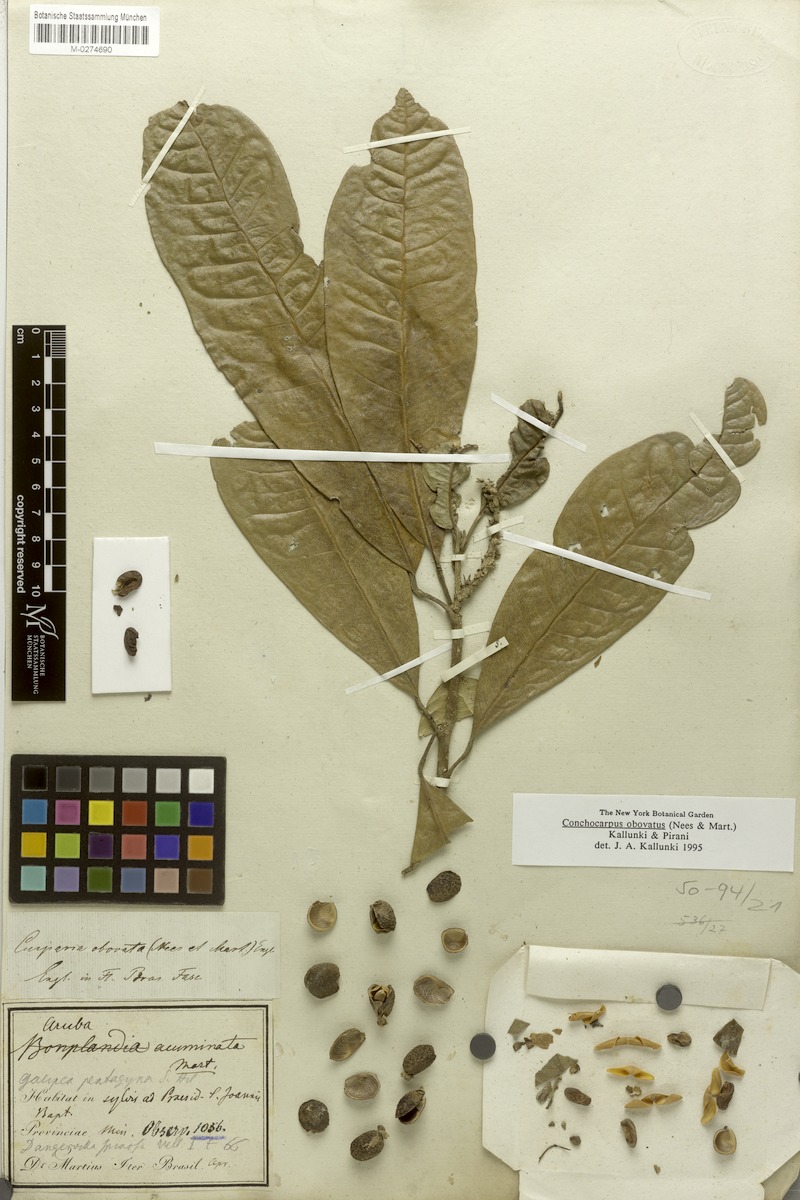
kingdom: Plantae
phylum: Tracheophyta
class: Magnoliopsida
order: Sapindales
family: Rutaceae
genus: Conchocarpus
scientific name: Conchocarpus obovatus
